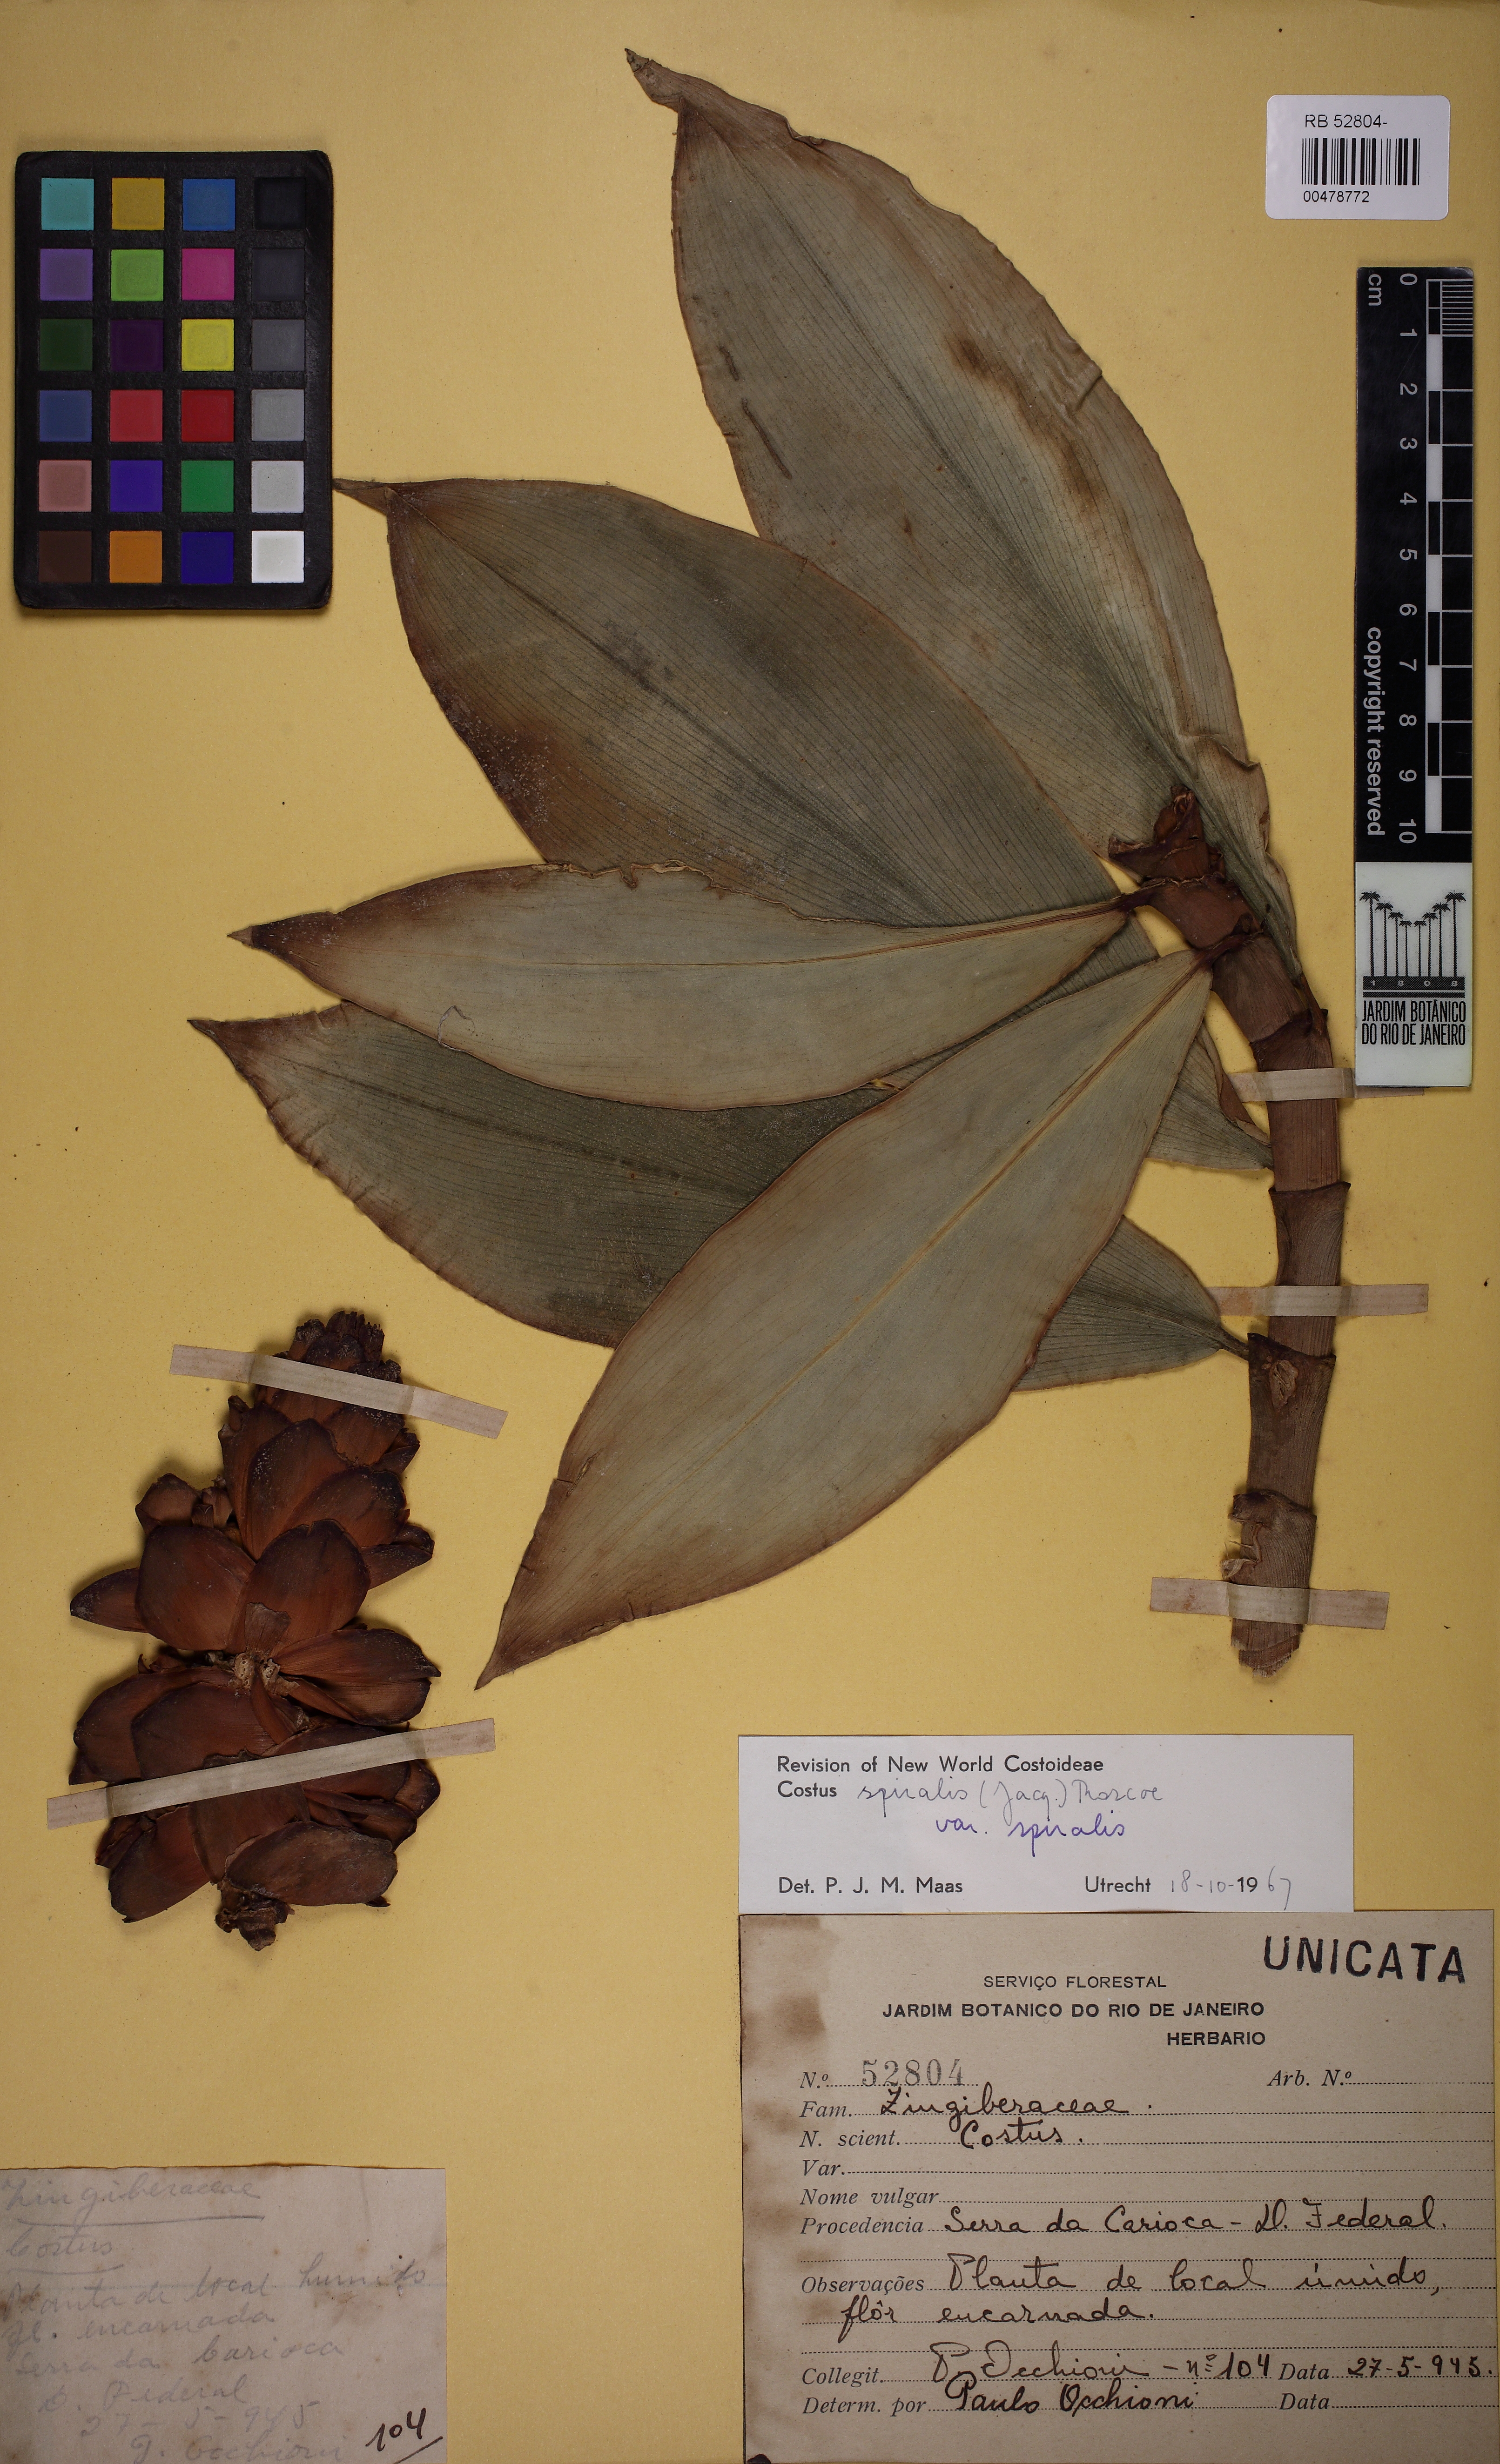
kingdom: Plantae
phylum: Tracheophyta
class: Liliopsida
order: Zingiberales
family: Costaceae
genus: Costus
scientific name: Costus spiralis
